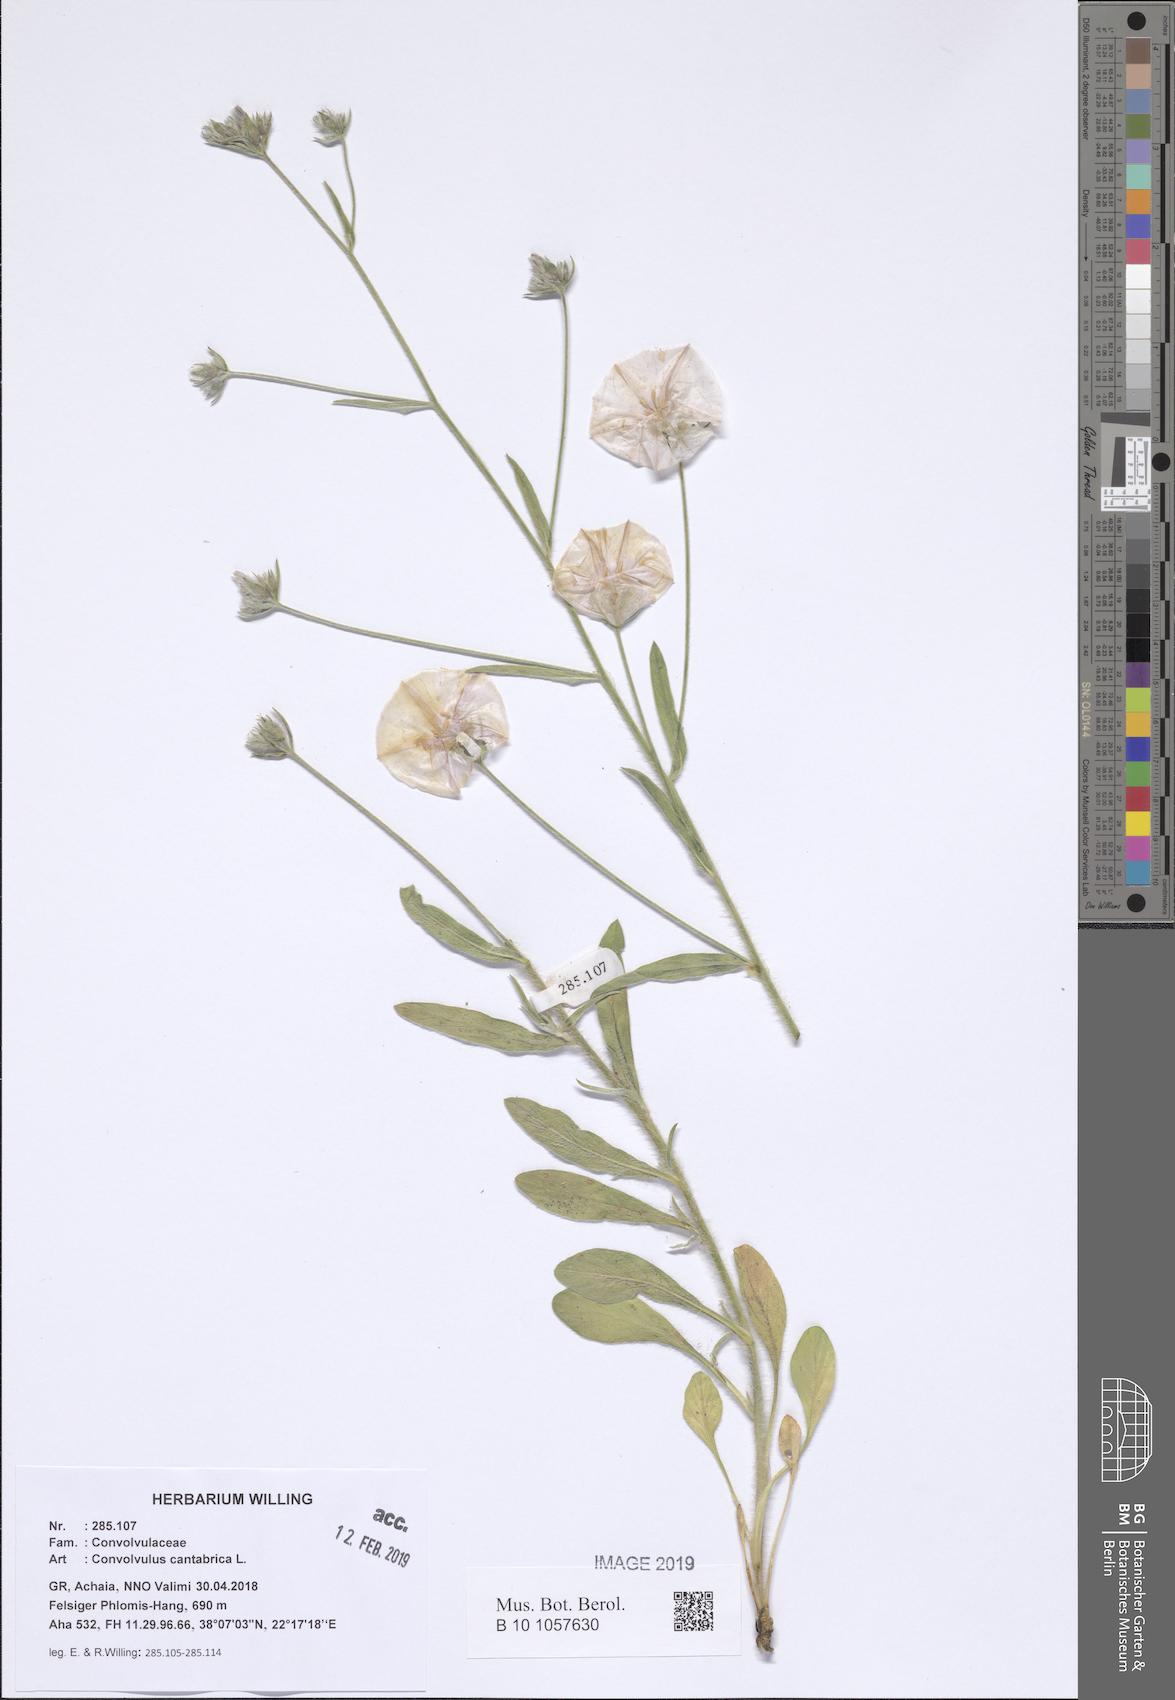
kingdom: Plantae
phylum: Tracheophyta
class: Magnoliopsida
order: Solanales
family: Convolvulaceae
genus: Convolvulus
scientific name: Convolvulus cantabrica
